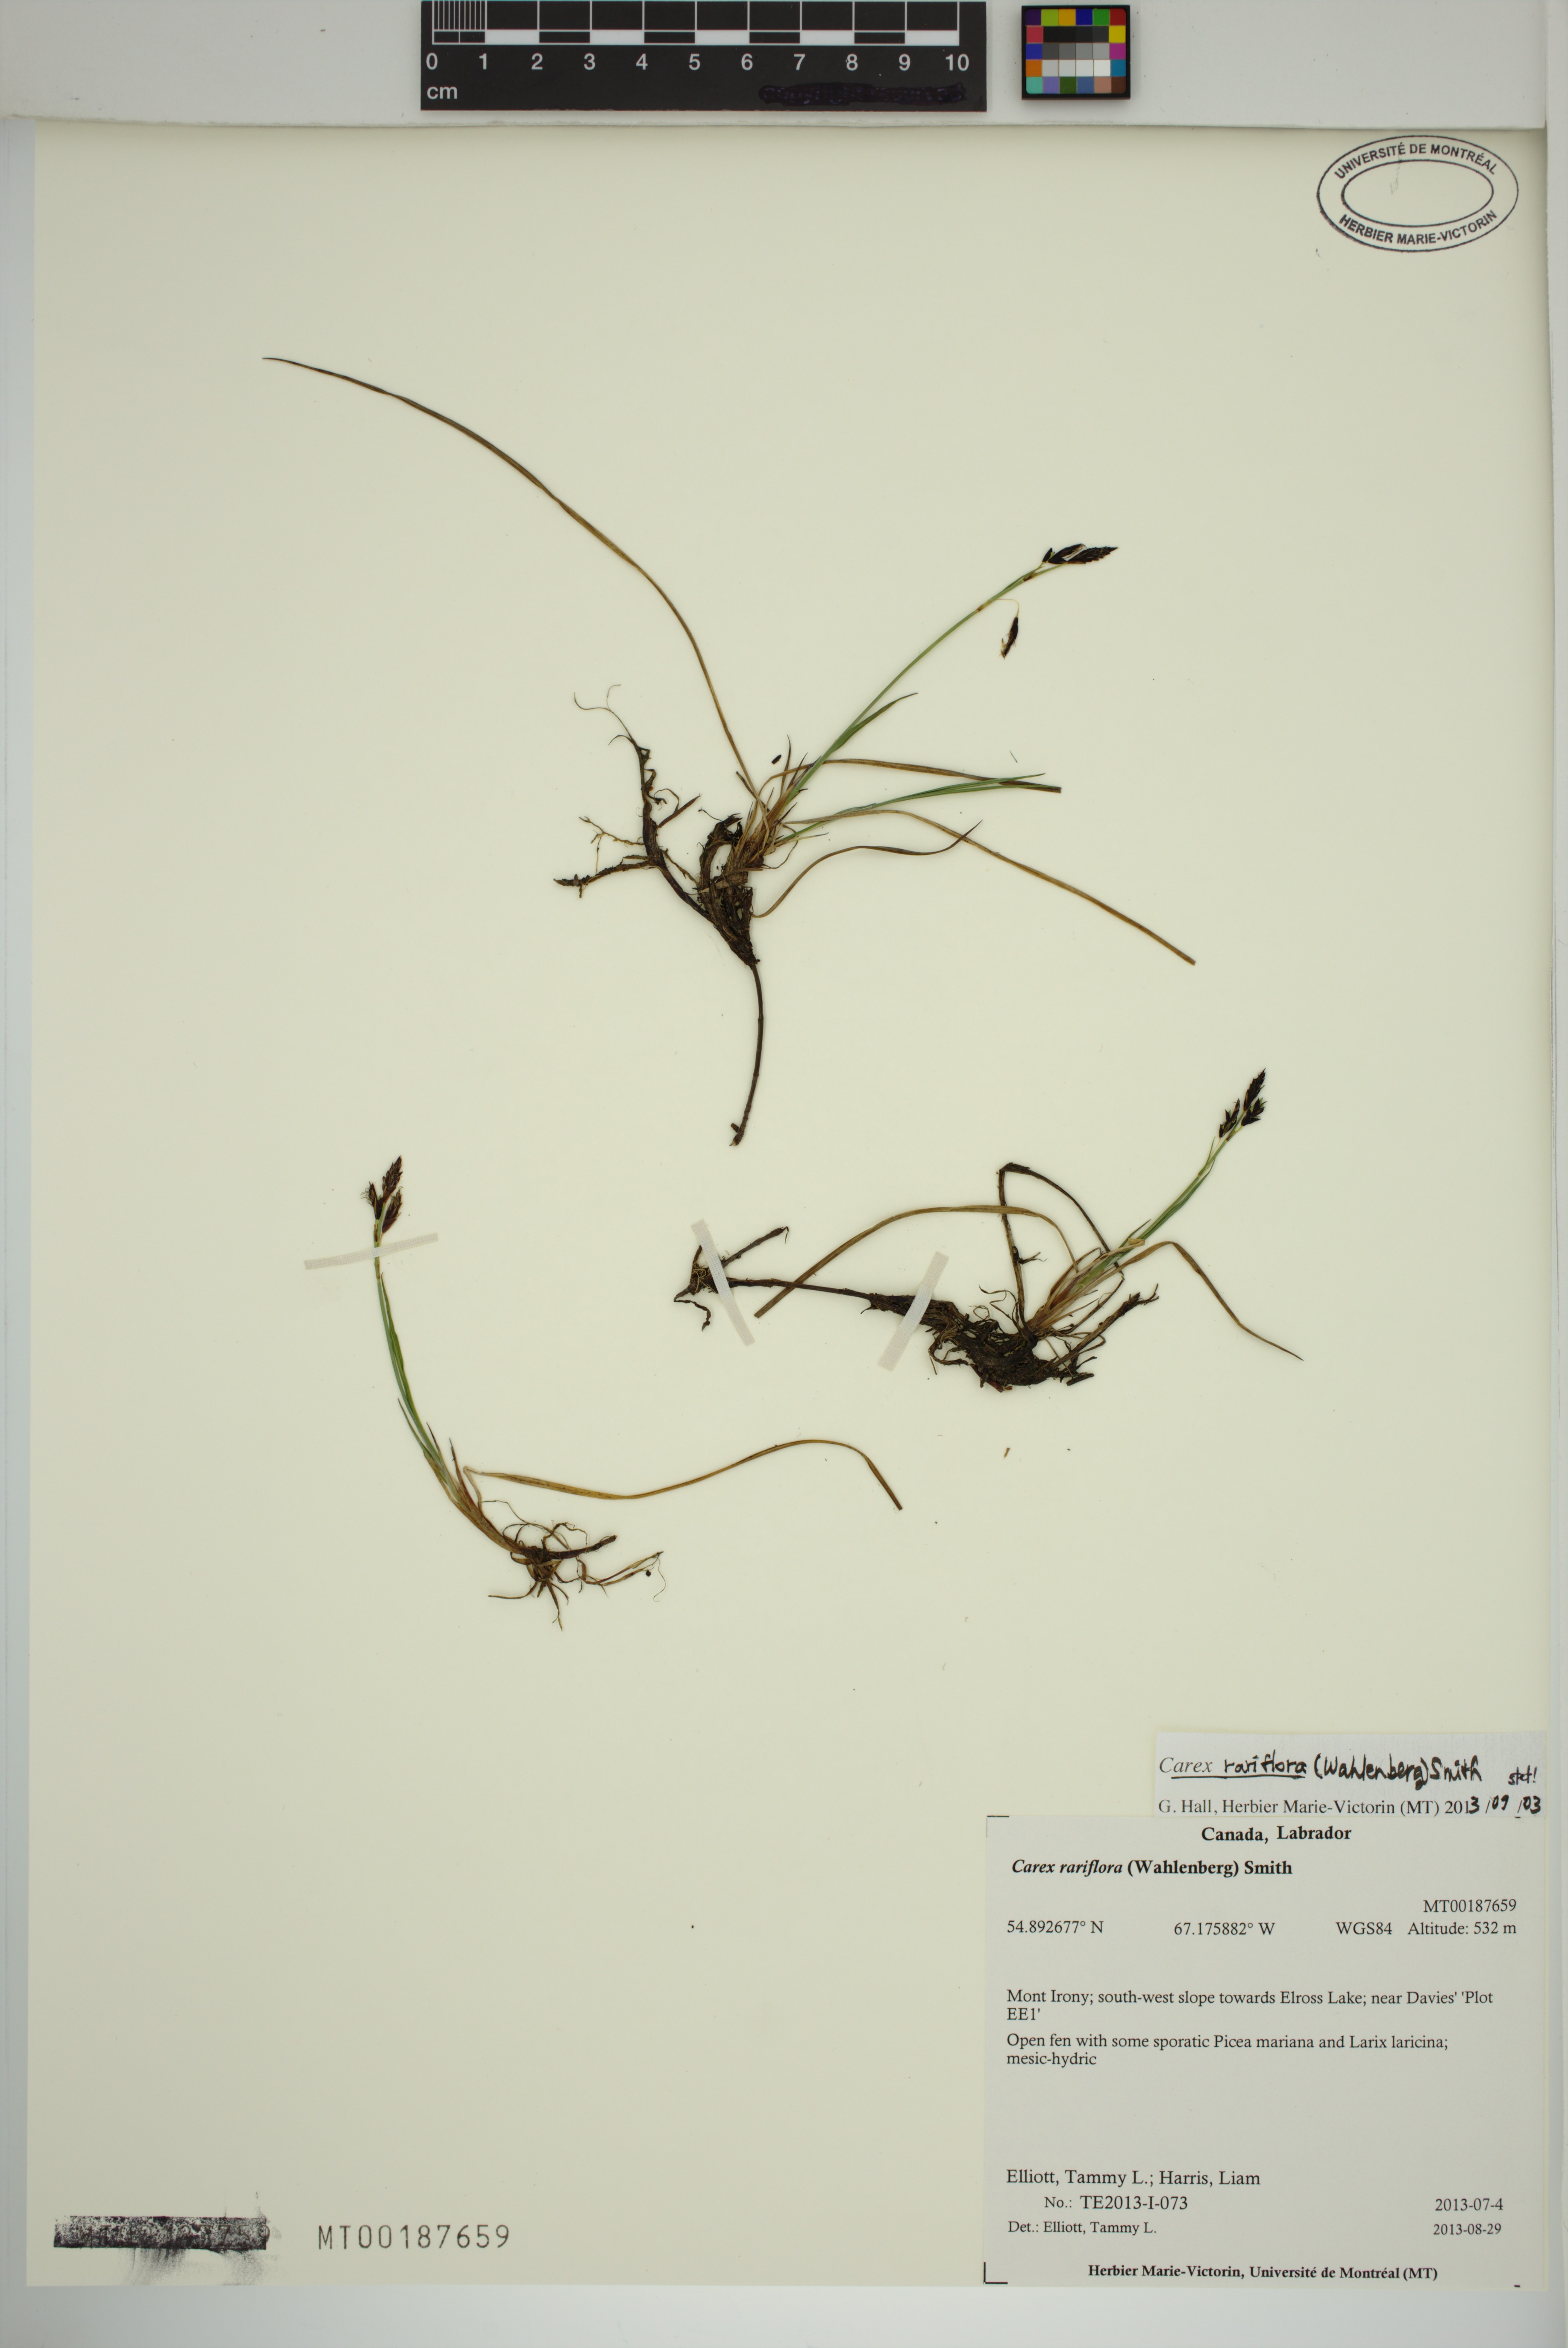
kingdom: Plantae
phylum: Tracheophyta
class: Liliopsida
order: Poales
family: Cyperaceae
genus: Carex
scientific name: Carex rariflora
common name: Loose-flowered alpine sedge
